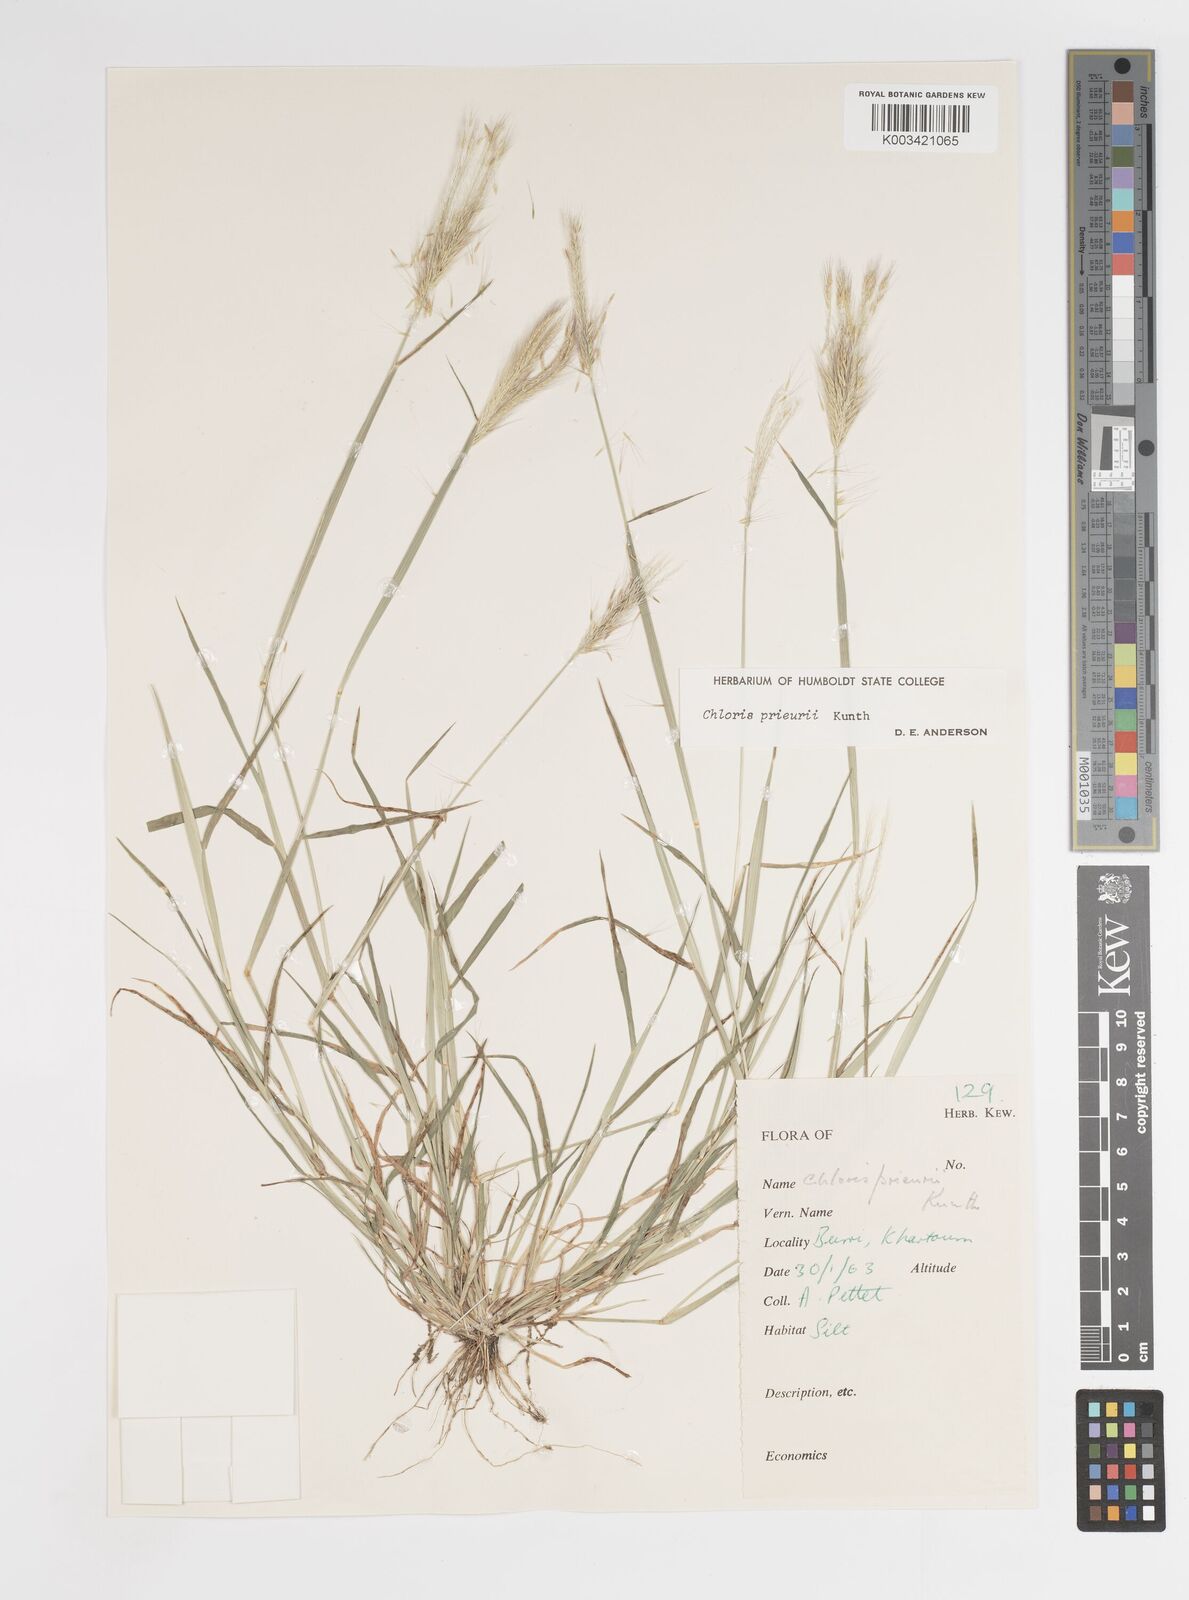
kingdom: Plantae
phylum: Tracheophyta
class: Liliopsida
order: Poales
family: Poaceae
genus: Enteropogon
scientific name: Enteropogon prieurii
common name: Prieur's umbrellagrass
